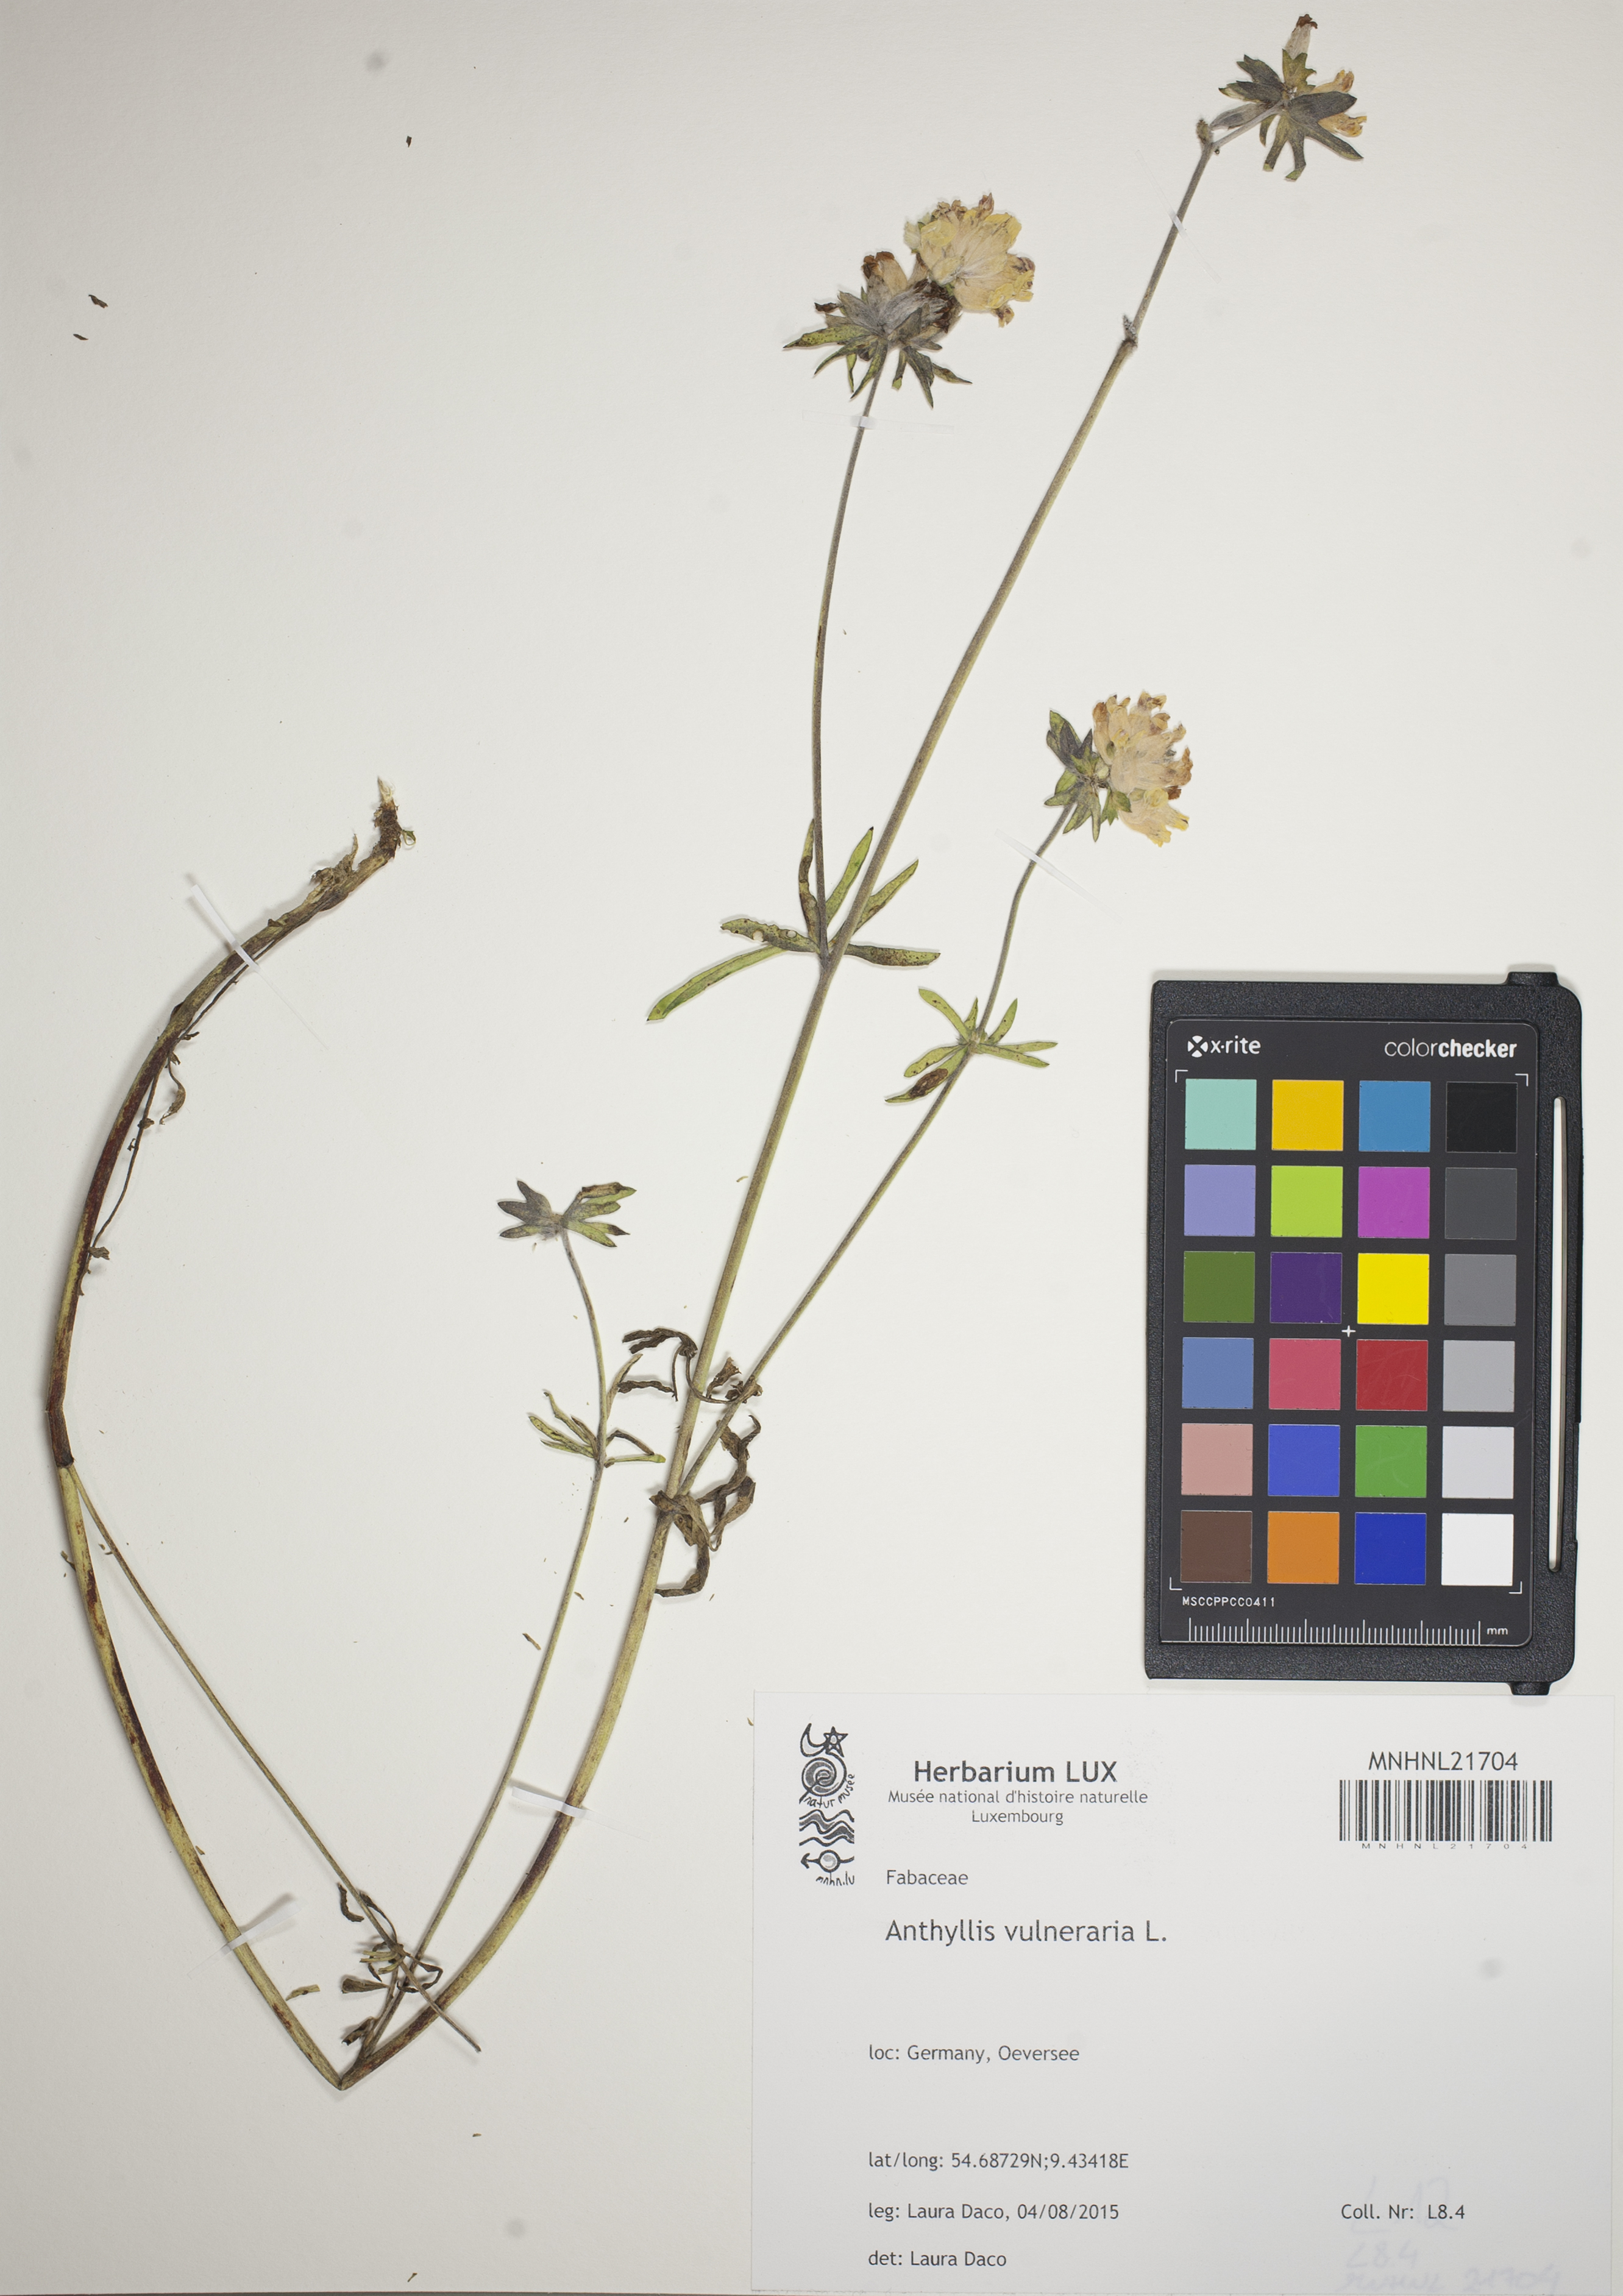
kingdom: Plantae
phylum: Tracheophyta
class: Magnoliopsida
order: Fabales
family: Fabaceae
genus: Anthyllis
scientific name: Anthyllis vulneraria
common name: Kidney vetch
